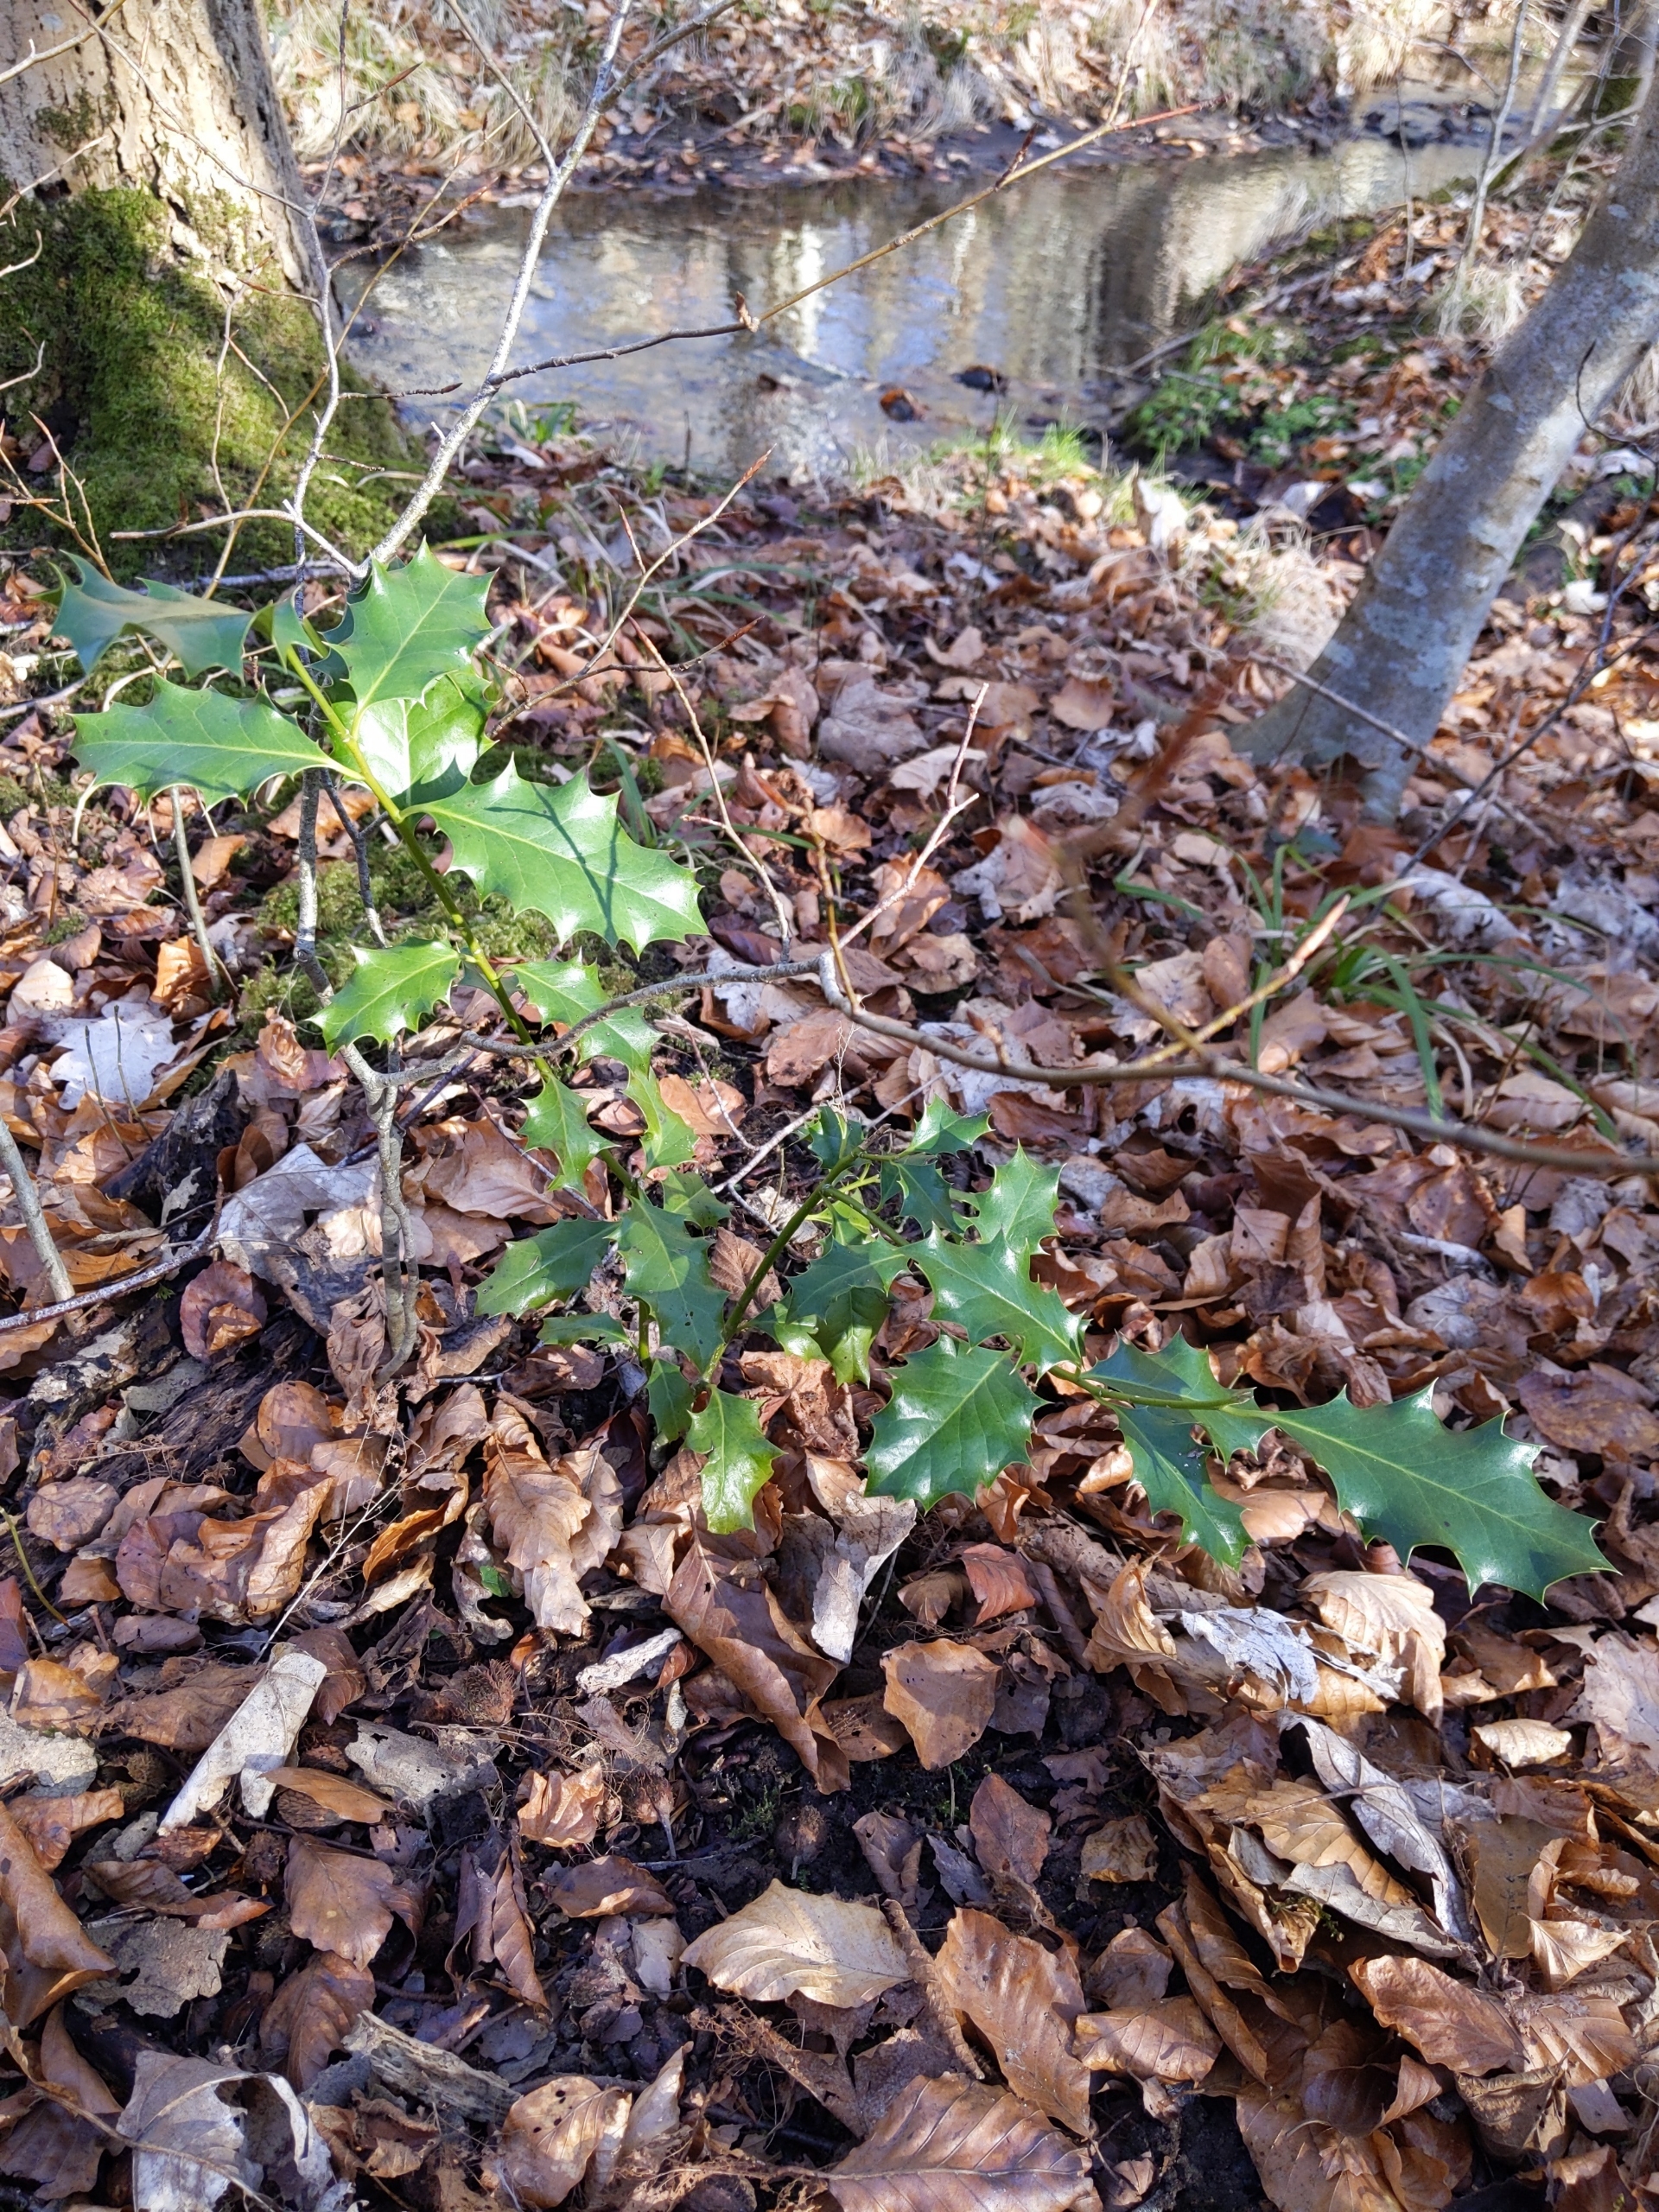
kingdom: Plantae
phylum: Tracheophyta
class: Magnoliopsida
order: Aquifoliales
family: Aquifoliaceae
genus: Ilex
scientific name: Ilex aquifolium
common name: Kristtorn
